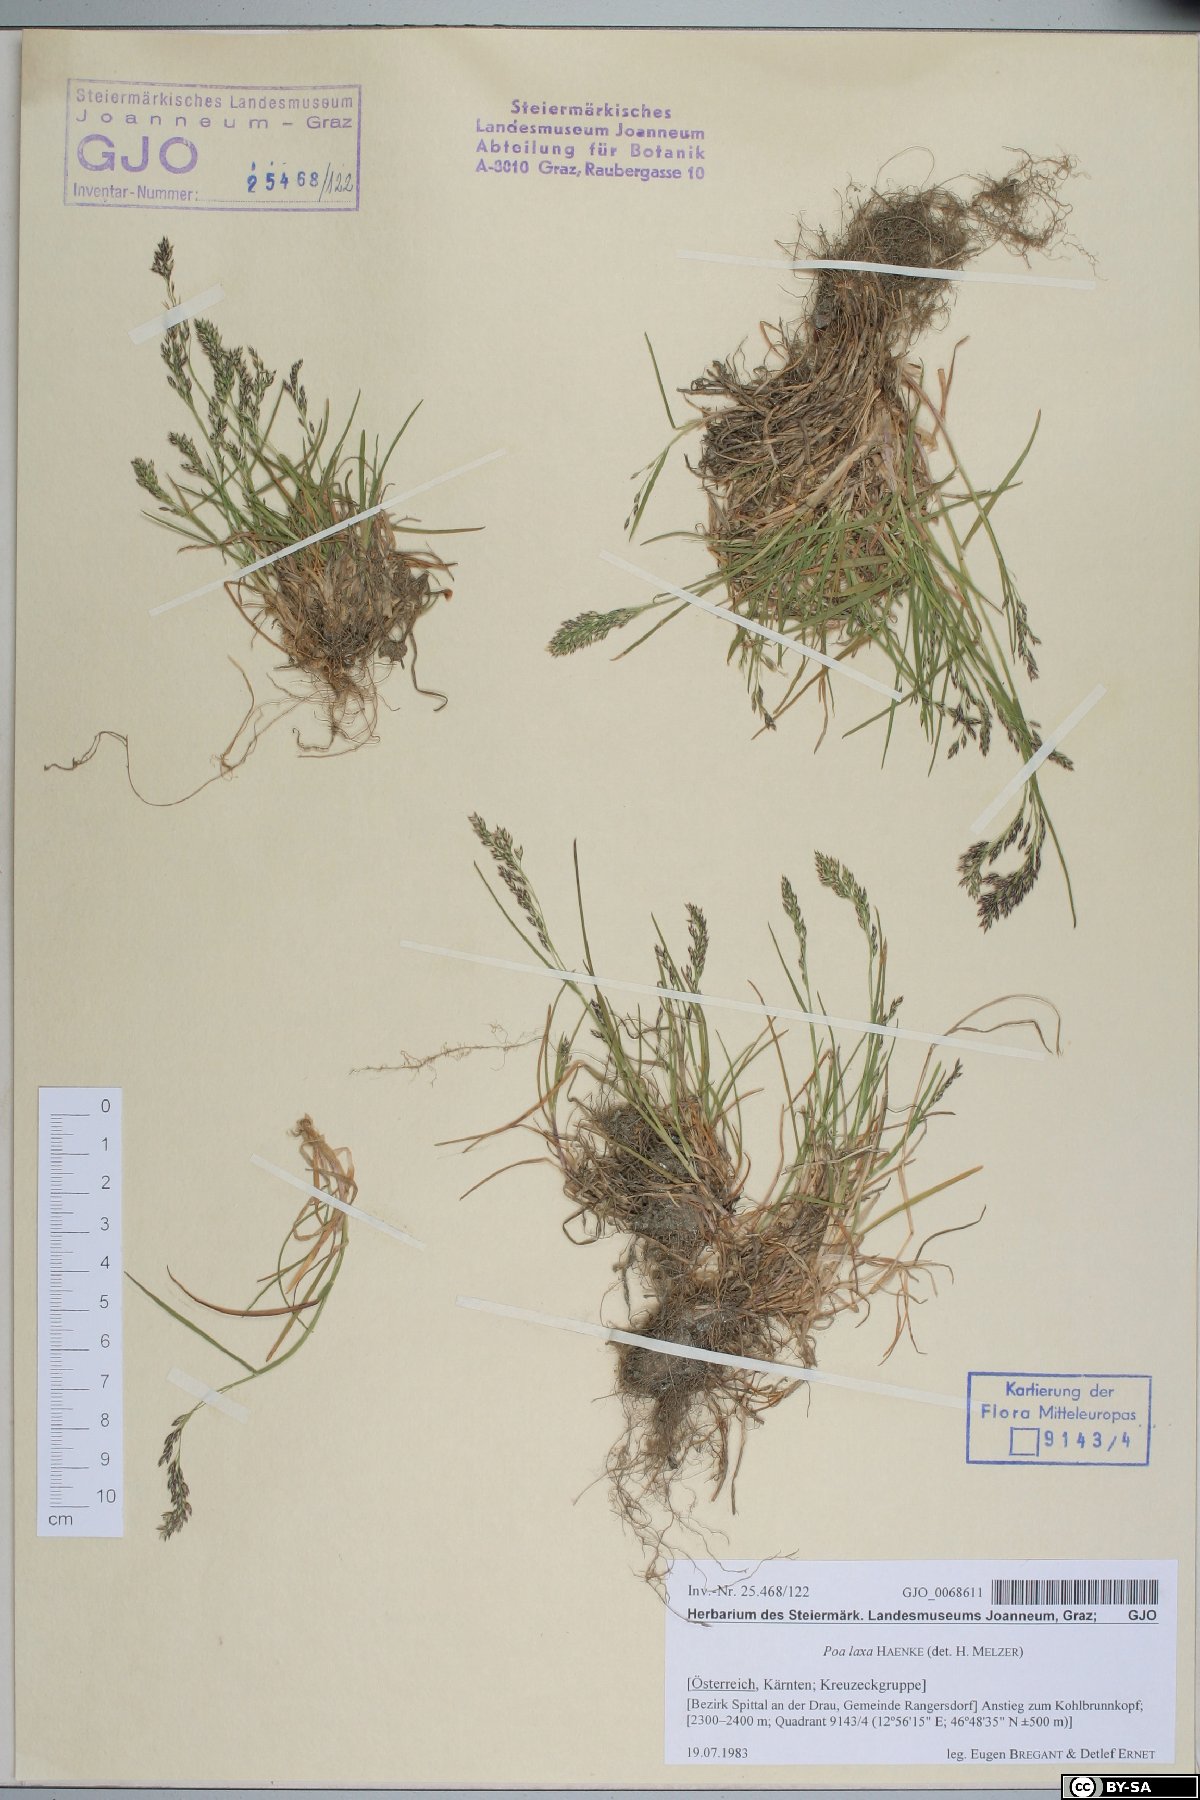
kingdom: Plantae
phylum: Tracheophyta
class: Liliopsida
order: Poales
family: Poaceae
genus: Poa
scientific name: Poa laxa
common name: Lax bluegrass
